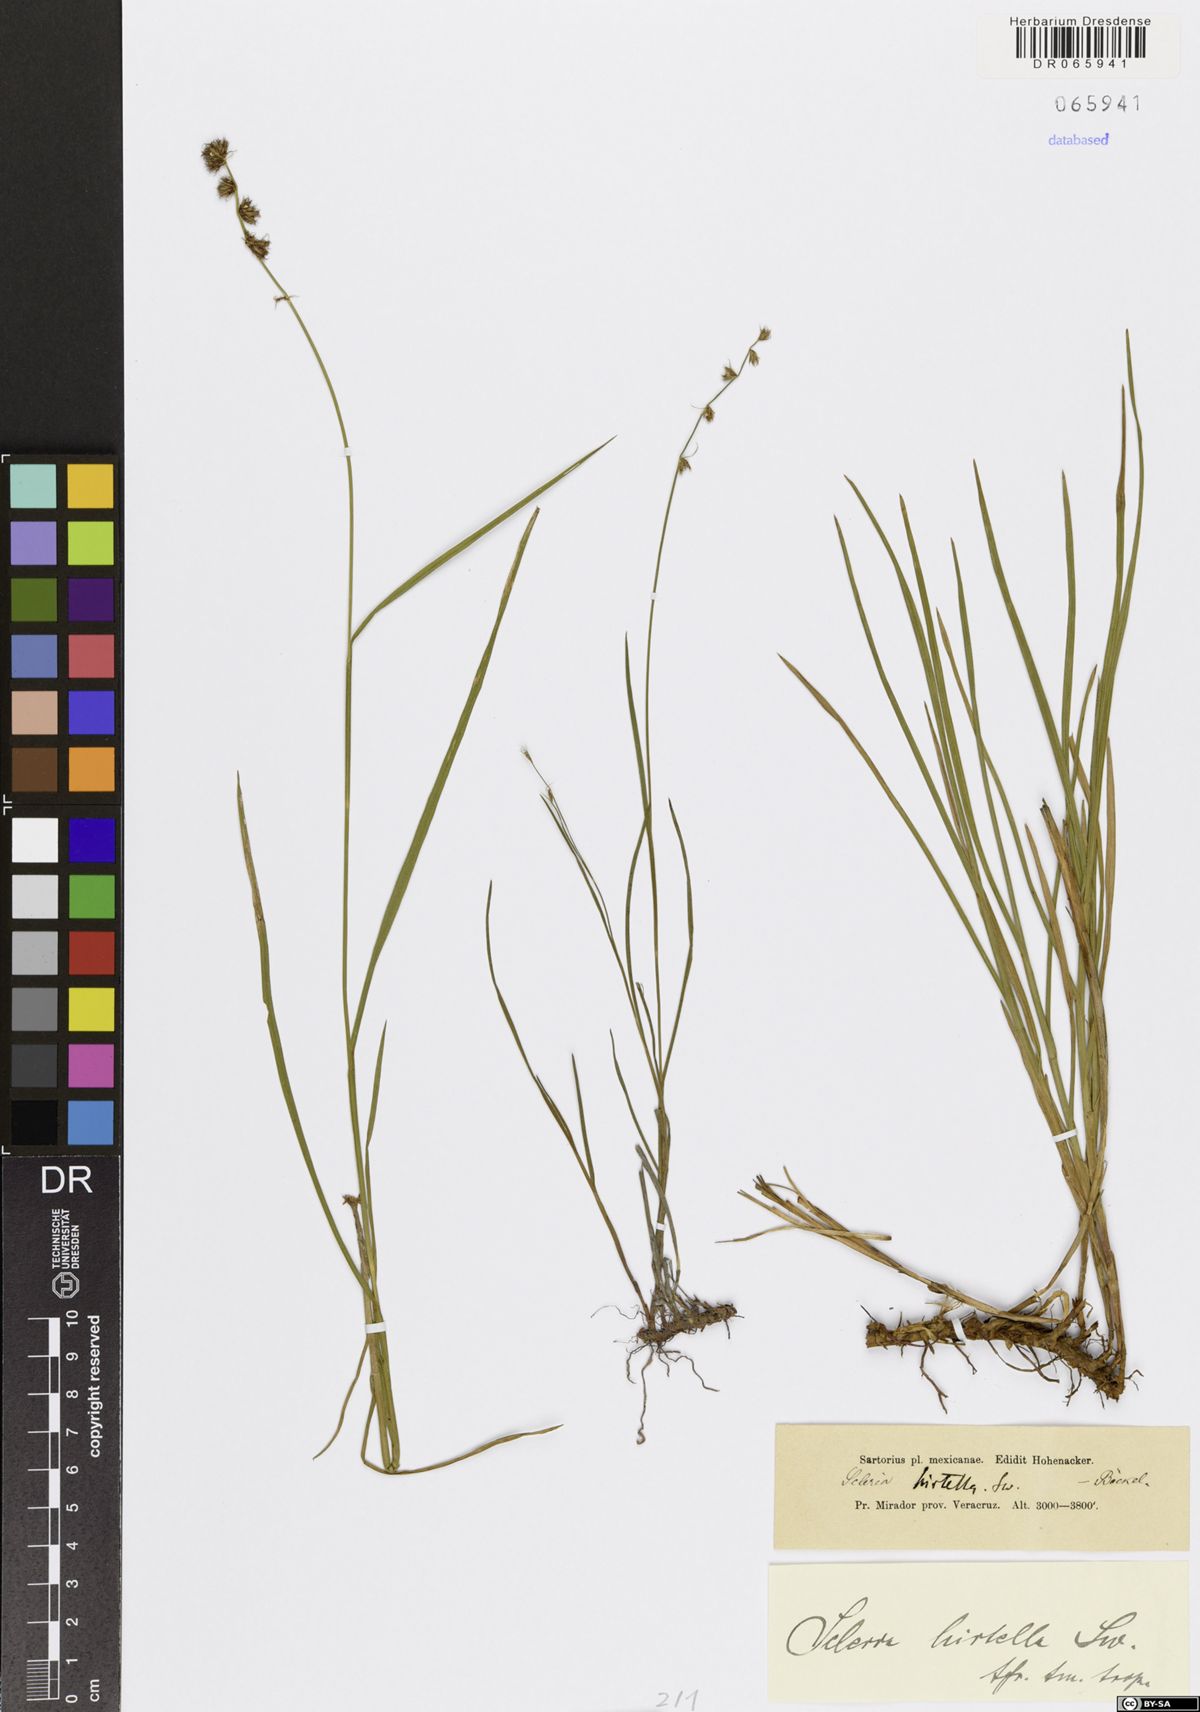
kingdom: Plantae
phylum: Tracheophyta
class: Liliopsida
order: Poales
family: Cyperaceae
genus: Scleria
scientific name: Scleria hirtella
